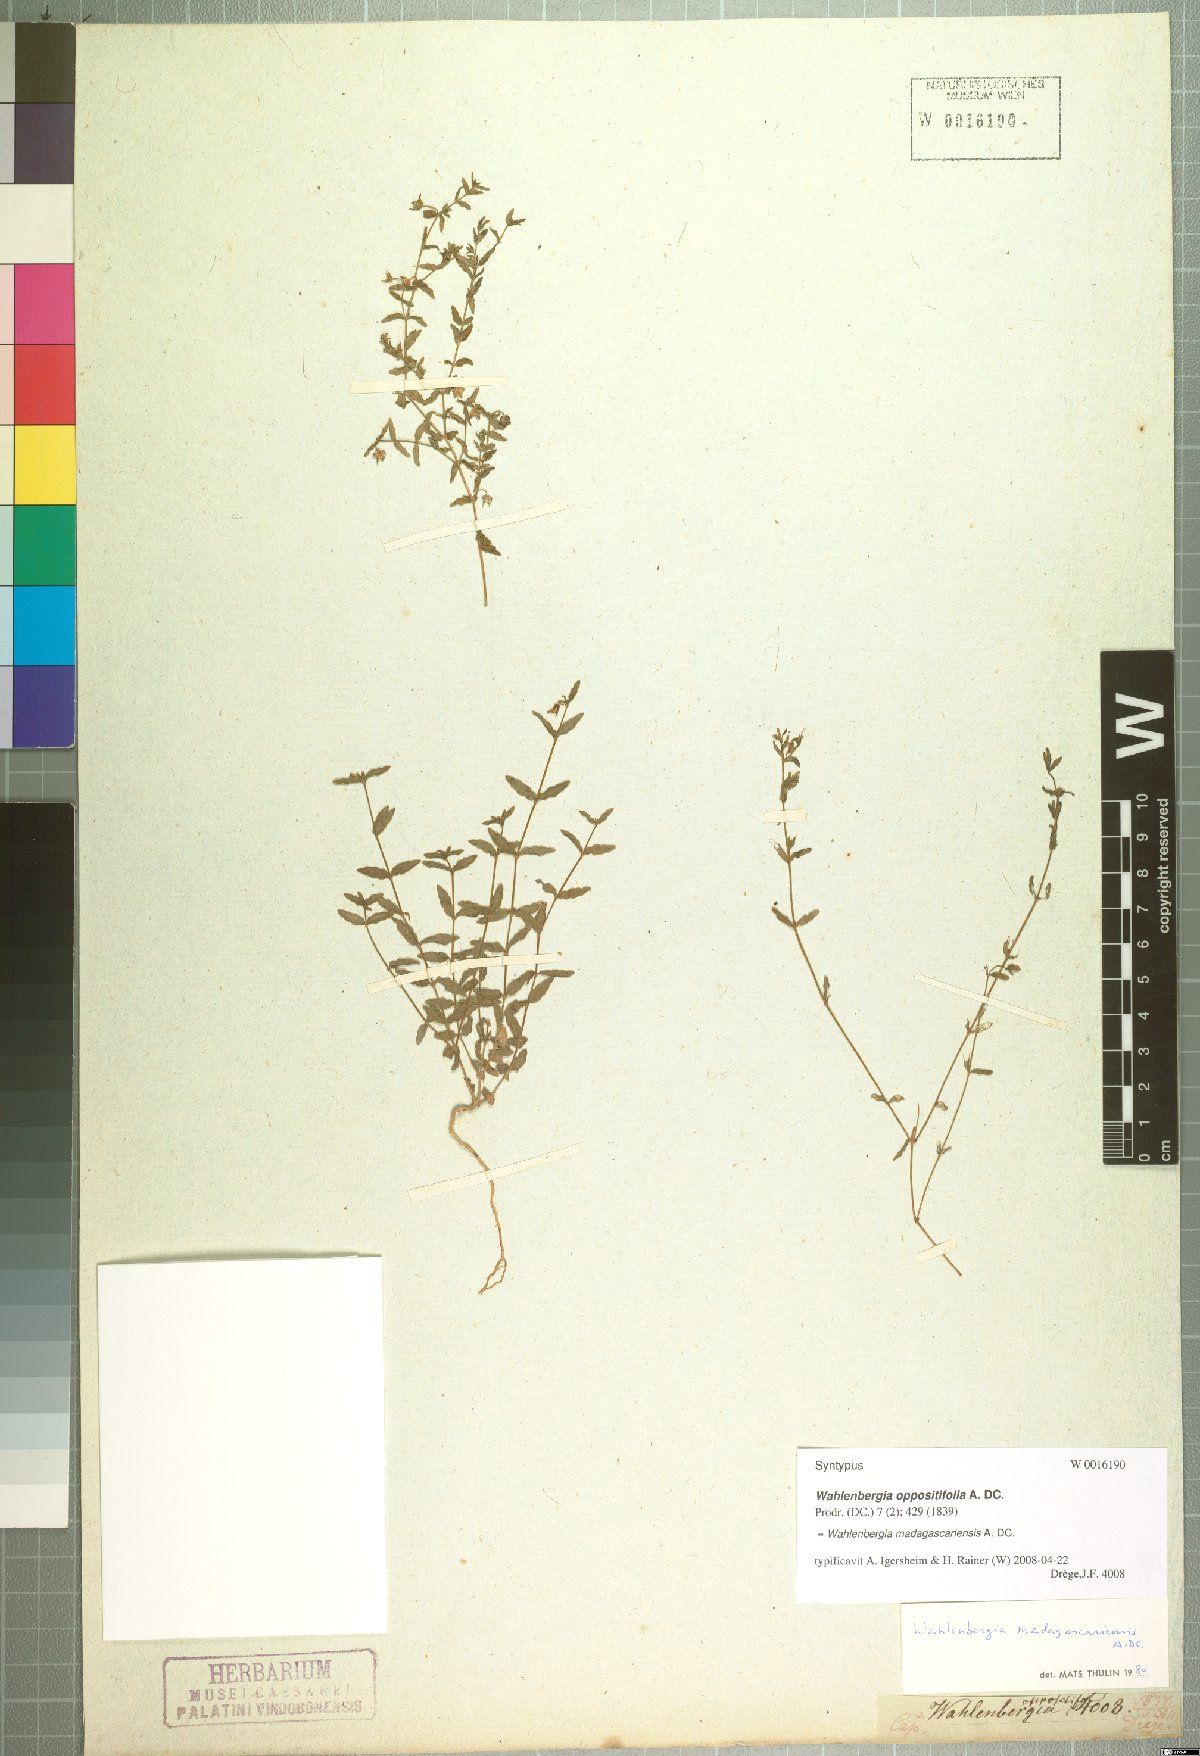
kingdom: Plantae
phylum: Tracheophyta
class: Magnoliopsida
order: Asterales
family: Campanulaceae
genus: Wahlenbergia
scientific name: Wahlenbergia madagascariensis
